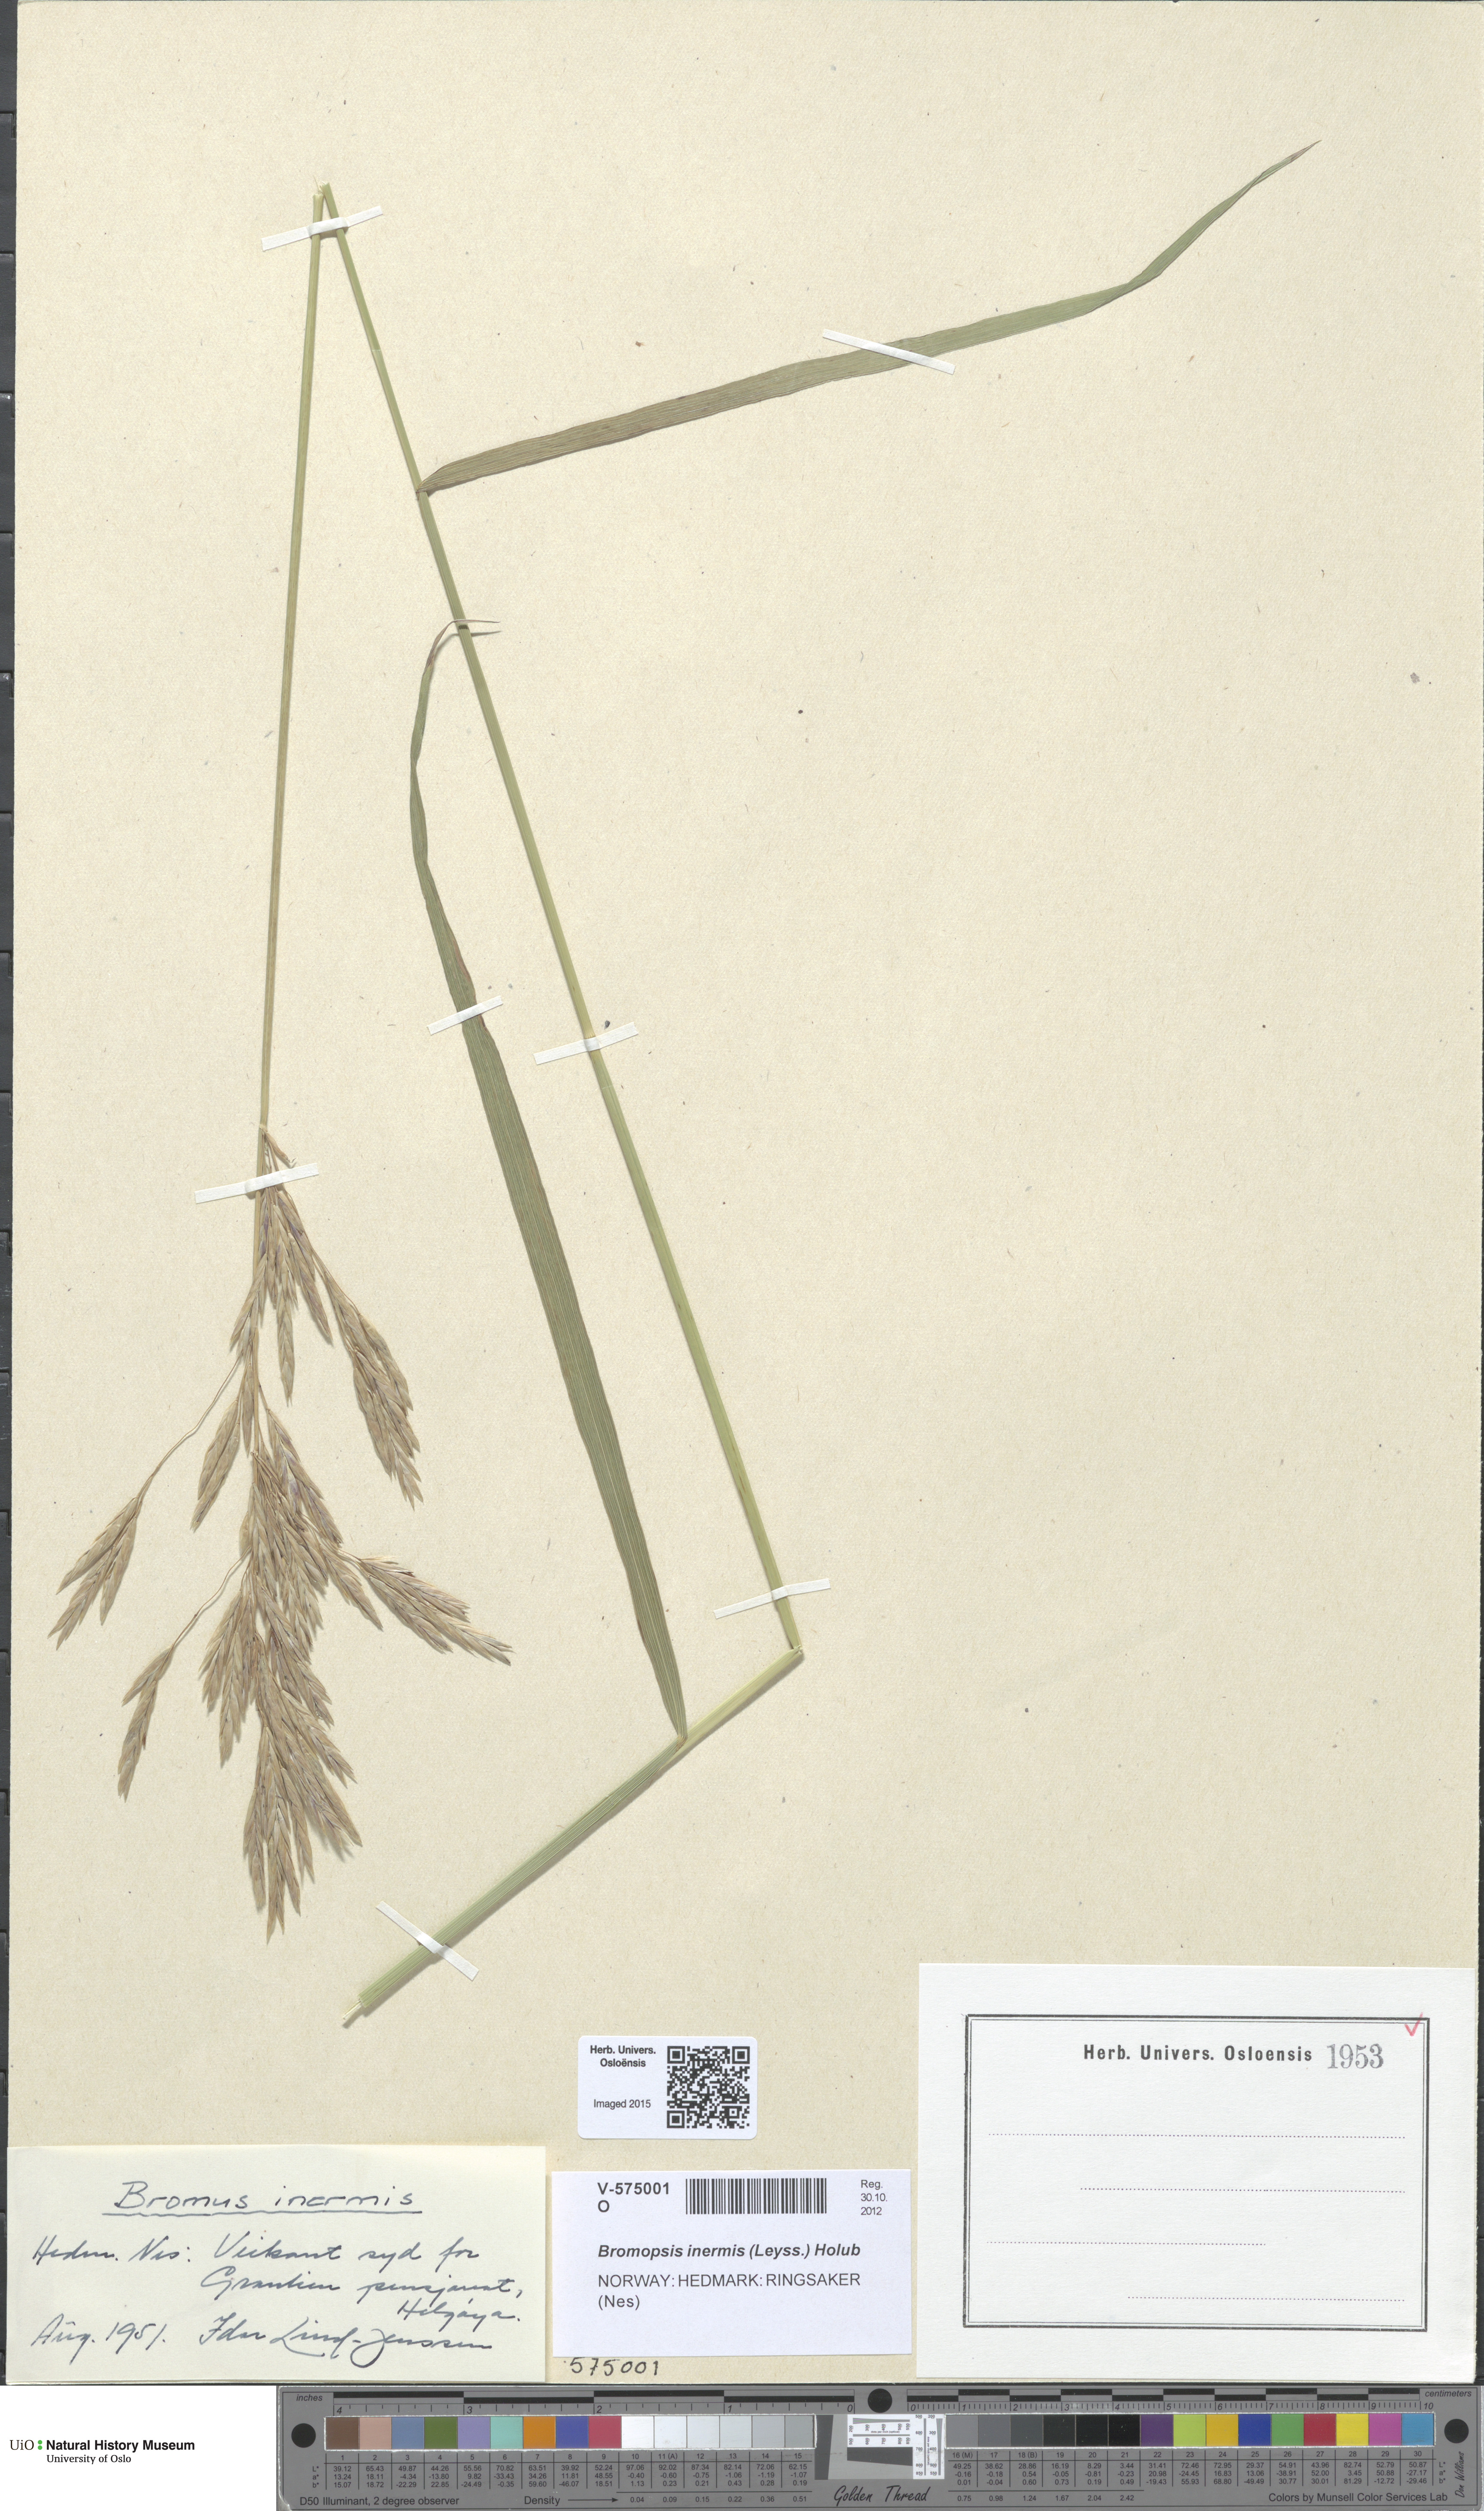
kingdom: Plantae
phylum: Tracheophyta
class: Liliopsida
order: Poales
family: Poaceae
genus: Bromus
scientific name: Bromus inermis
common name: Smooth brome
